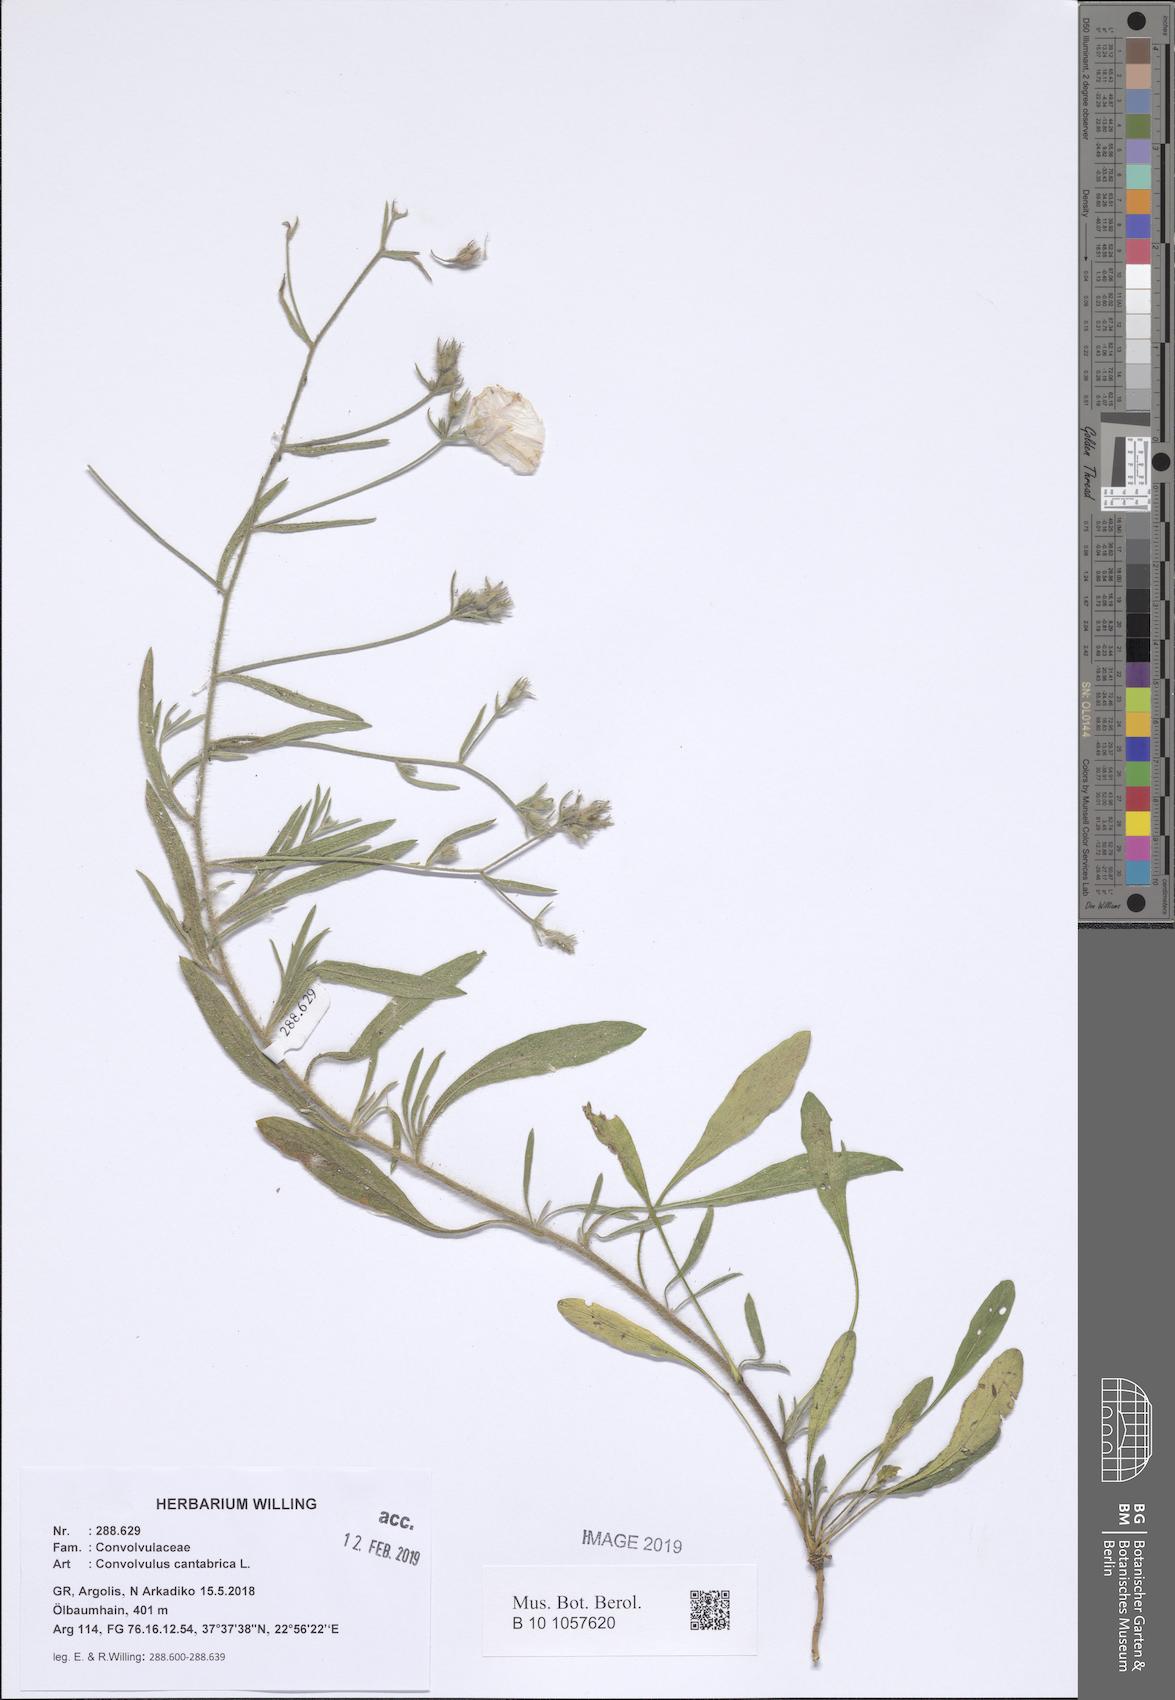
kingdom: Plantae
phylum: Tracheophyta
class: Magnoliopsida
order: Solanales
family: Convolvulaceae
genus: Convolvulus
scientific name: Convolvulus cantabrica
